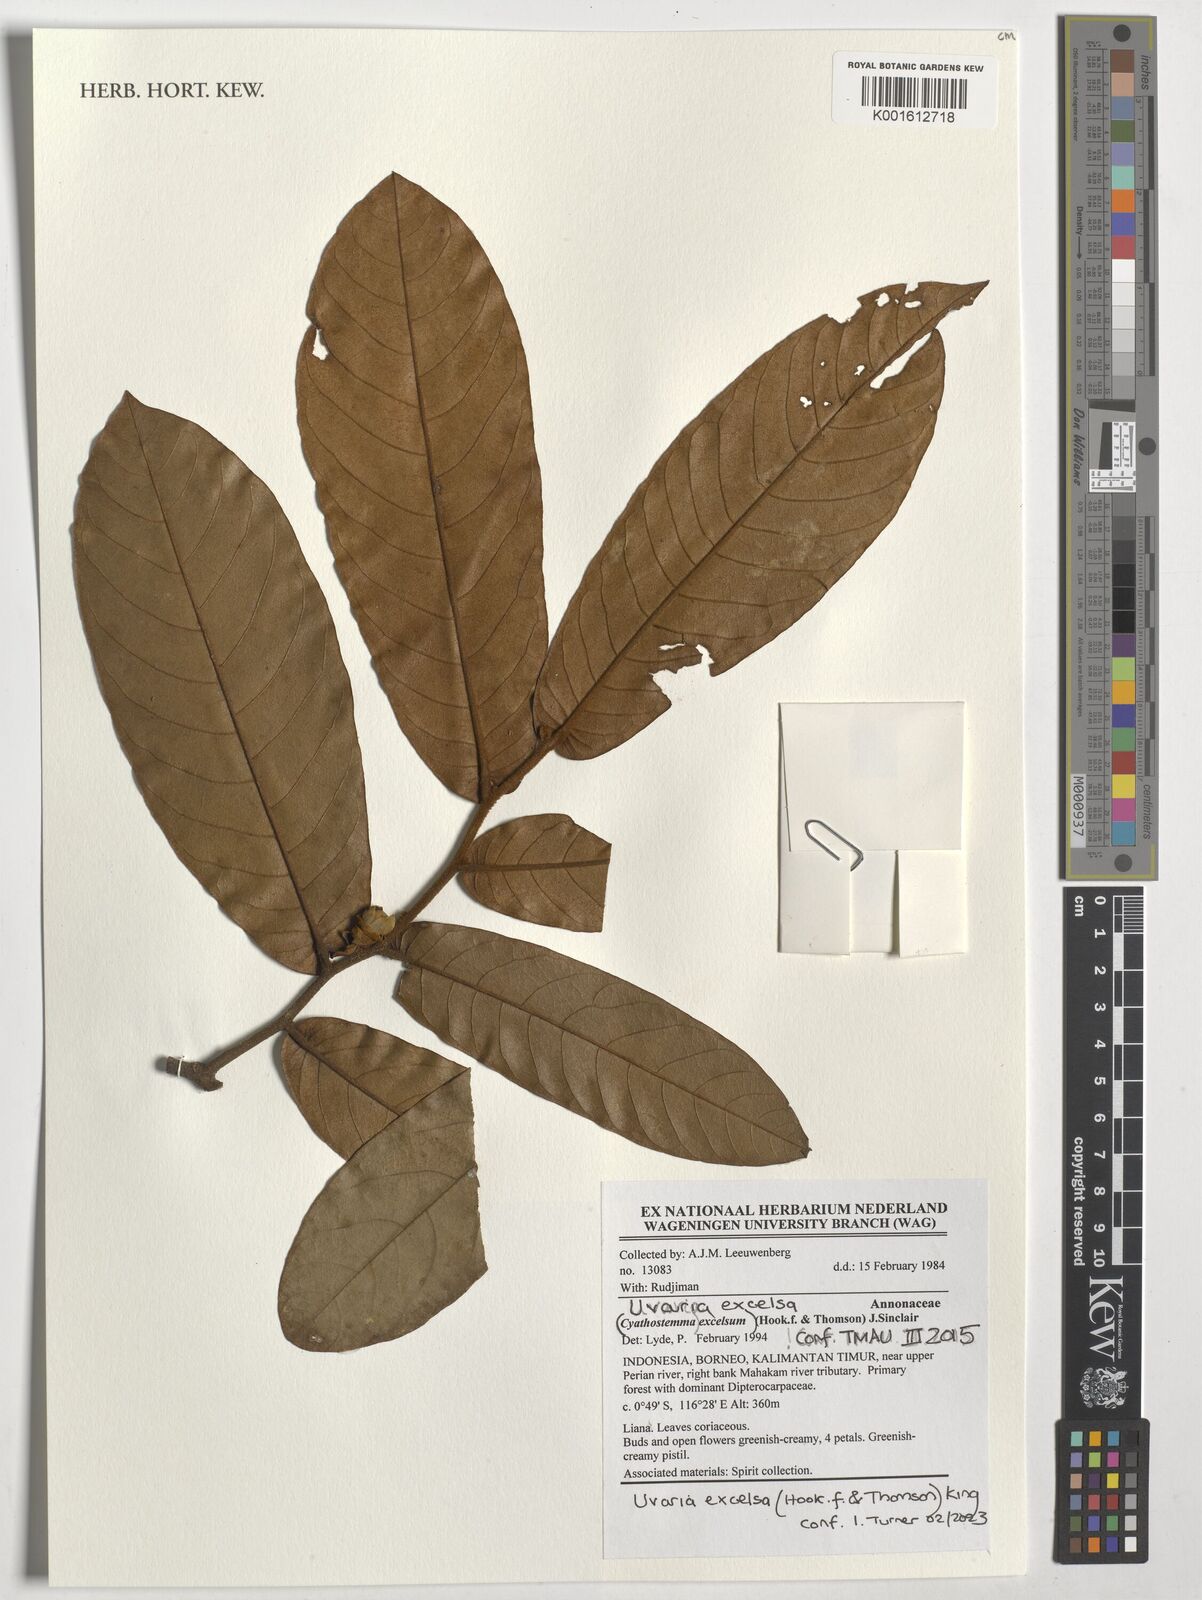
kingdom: Plantae
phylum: Tracheophyta
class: Magnoliopsida
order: Magnoliales
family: Annonaceae
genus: Uvaria
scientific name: Uvaria excelsa
